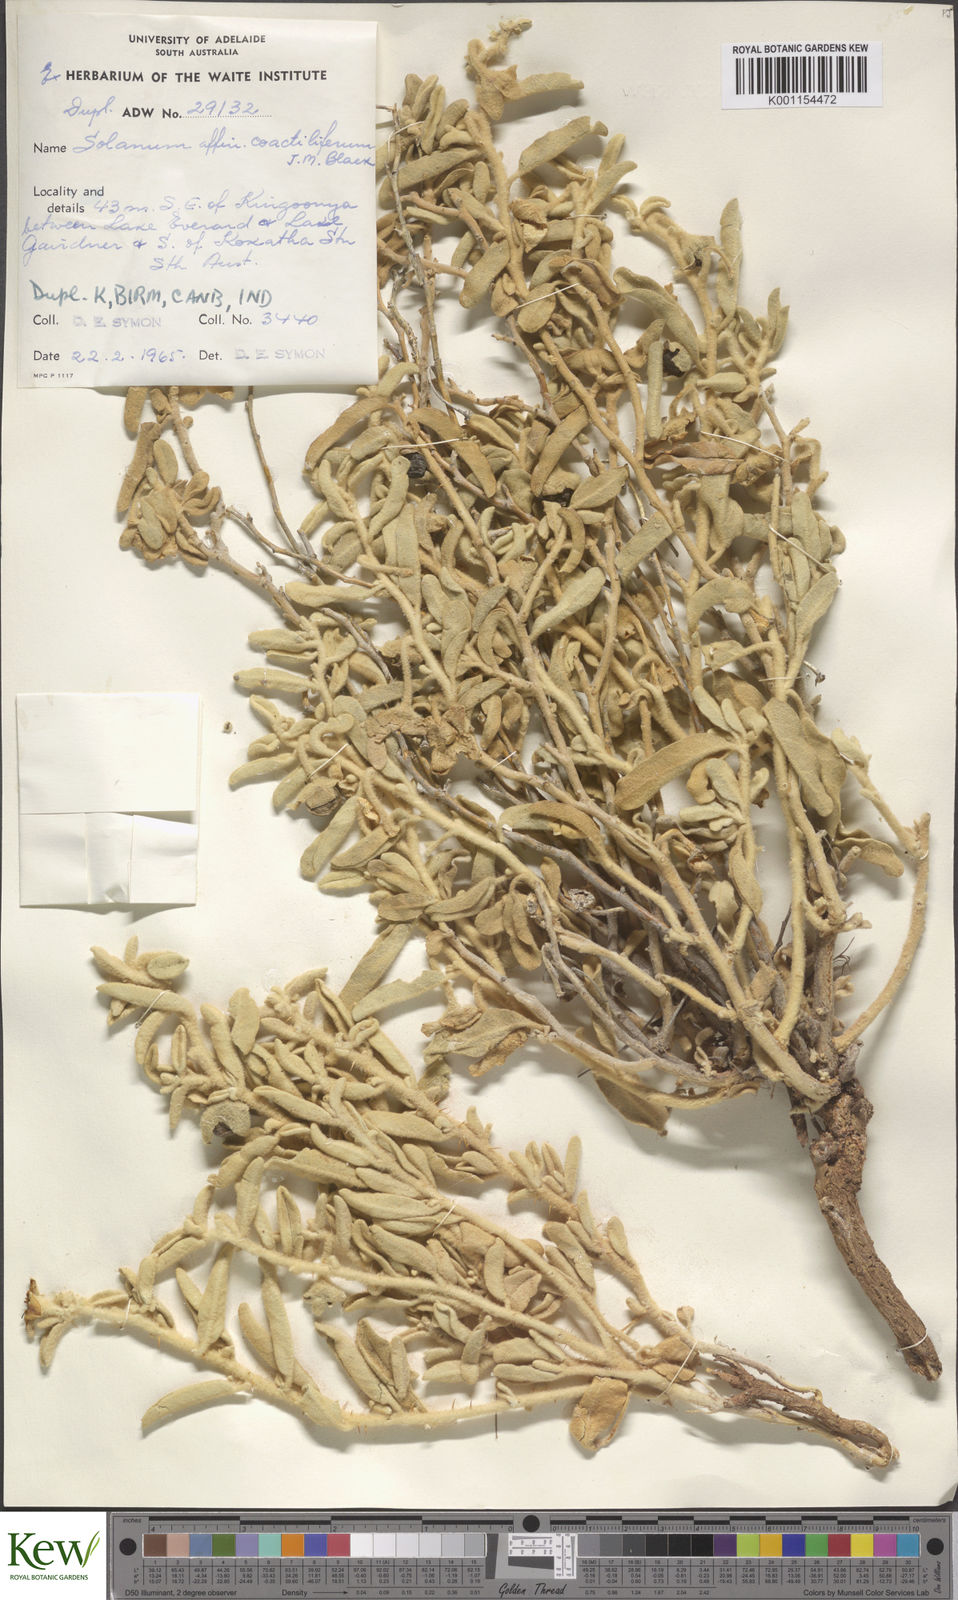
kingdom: Plantae
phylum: Tracheophyta
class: Magnoliopsida
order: Solanales
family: Solanaceae
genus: Solanum
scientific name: Solanum coactiliferum
